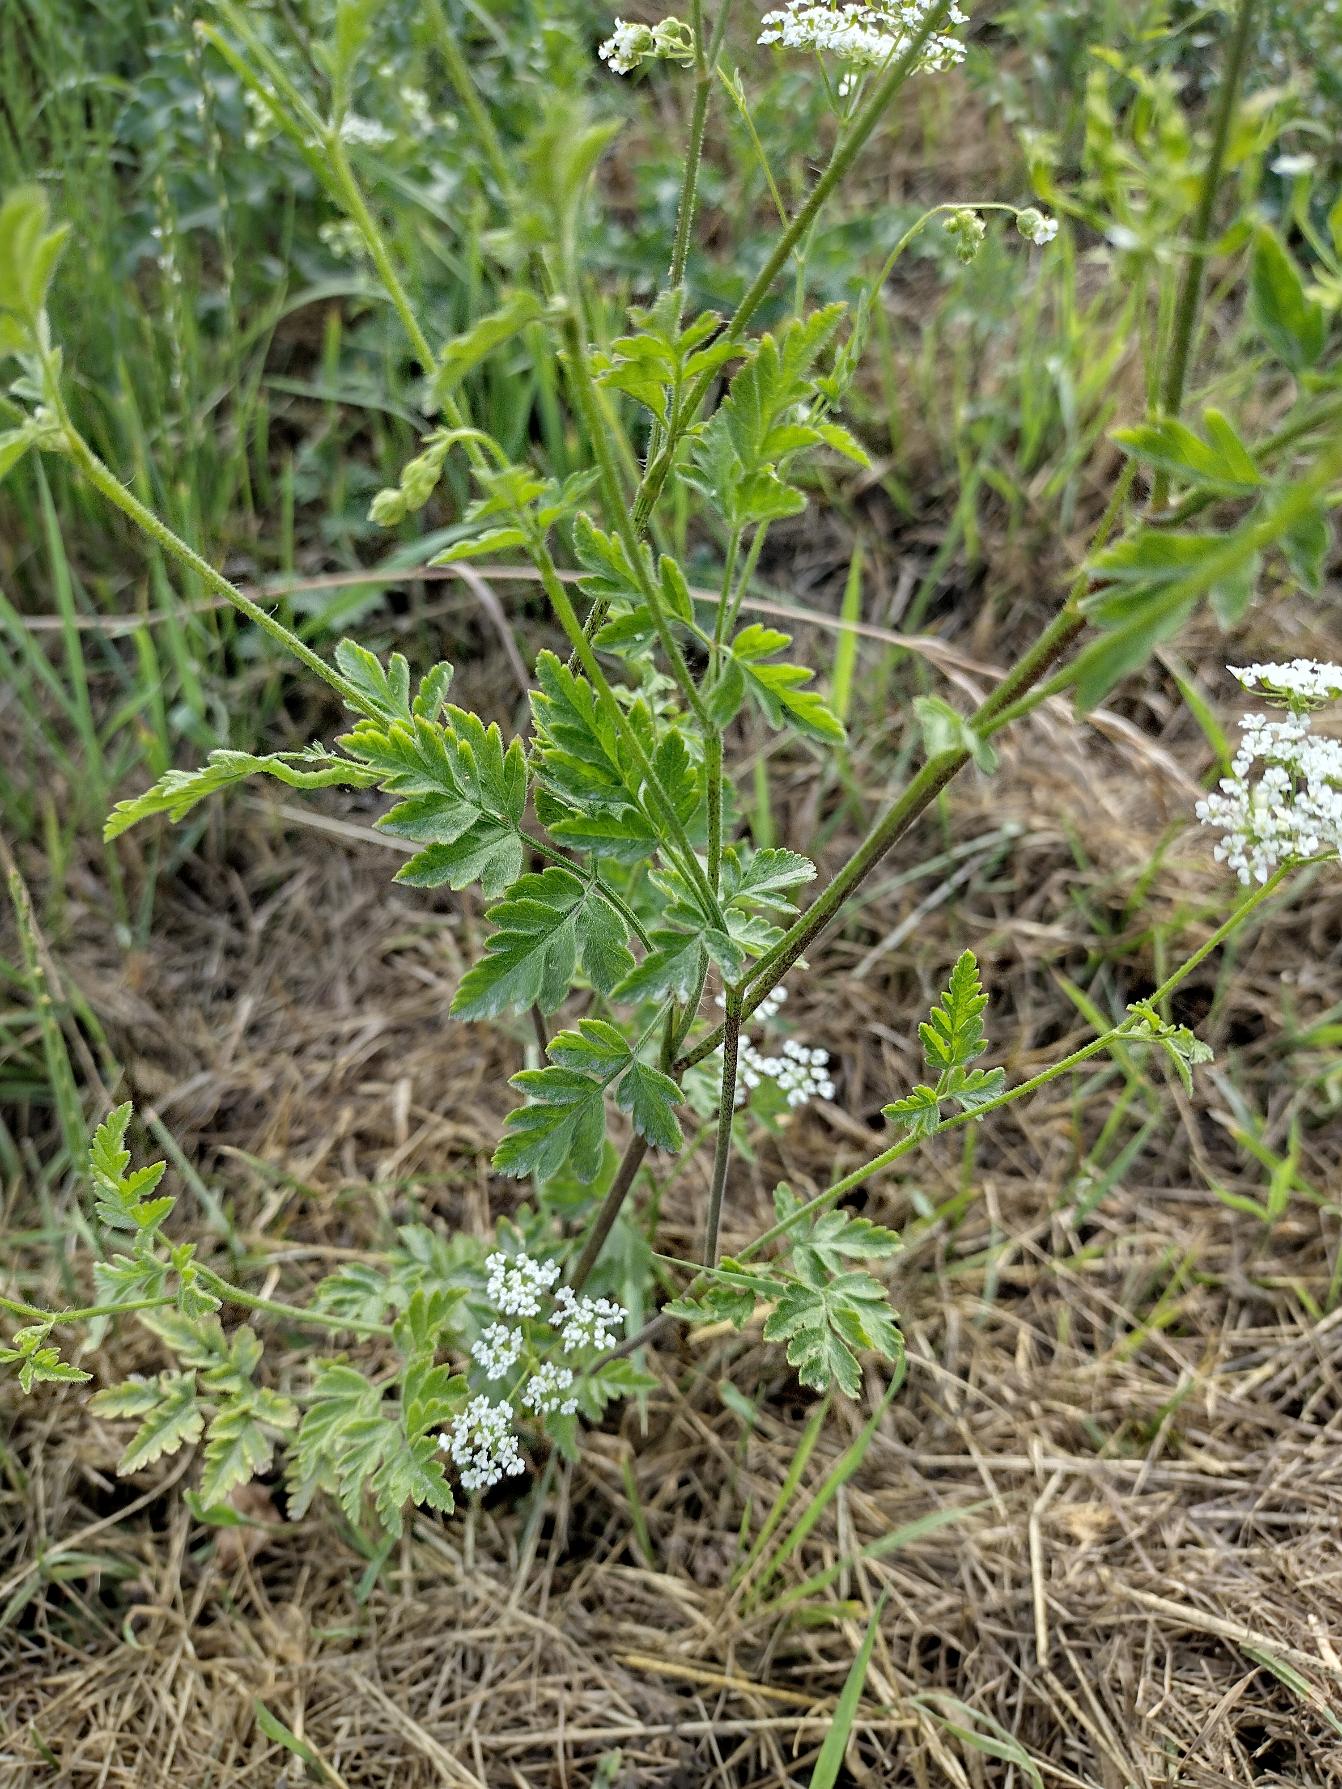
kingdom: Plantae
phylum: Tracheophyta
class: Magnoliopsida
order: Apiales
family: Apiaceae
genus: Chaerophyllum
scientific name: Chaerophyllum temulum
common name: Almindelig hulsvøb
